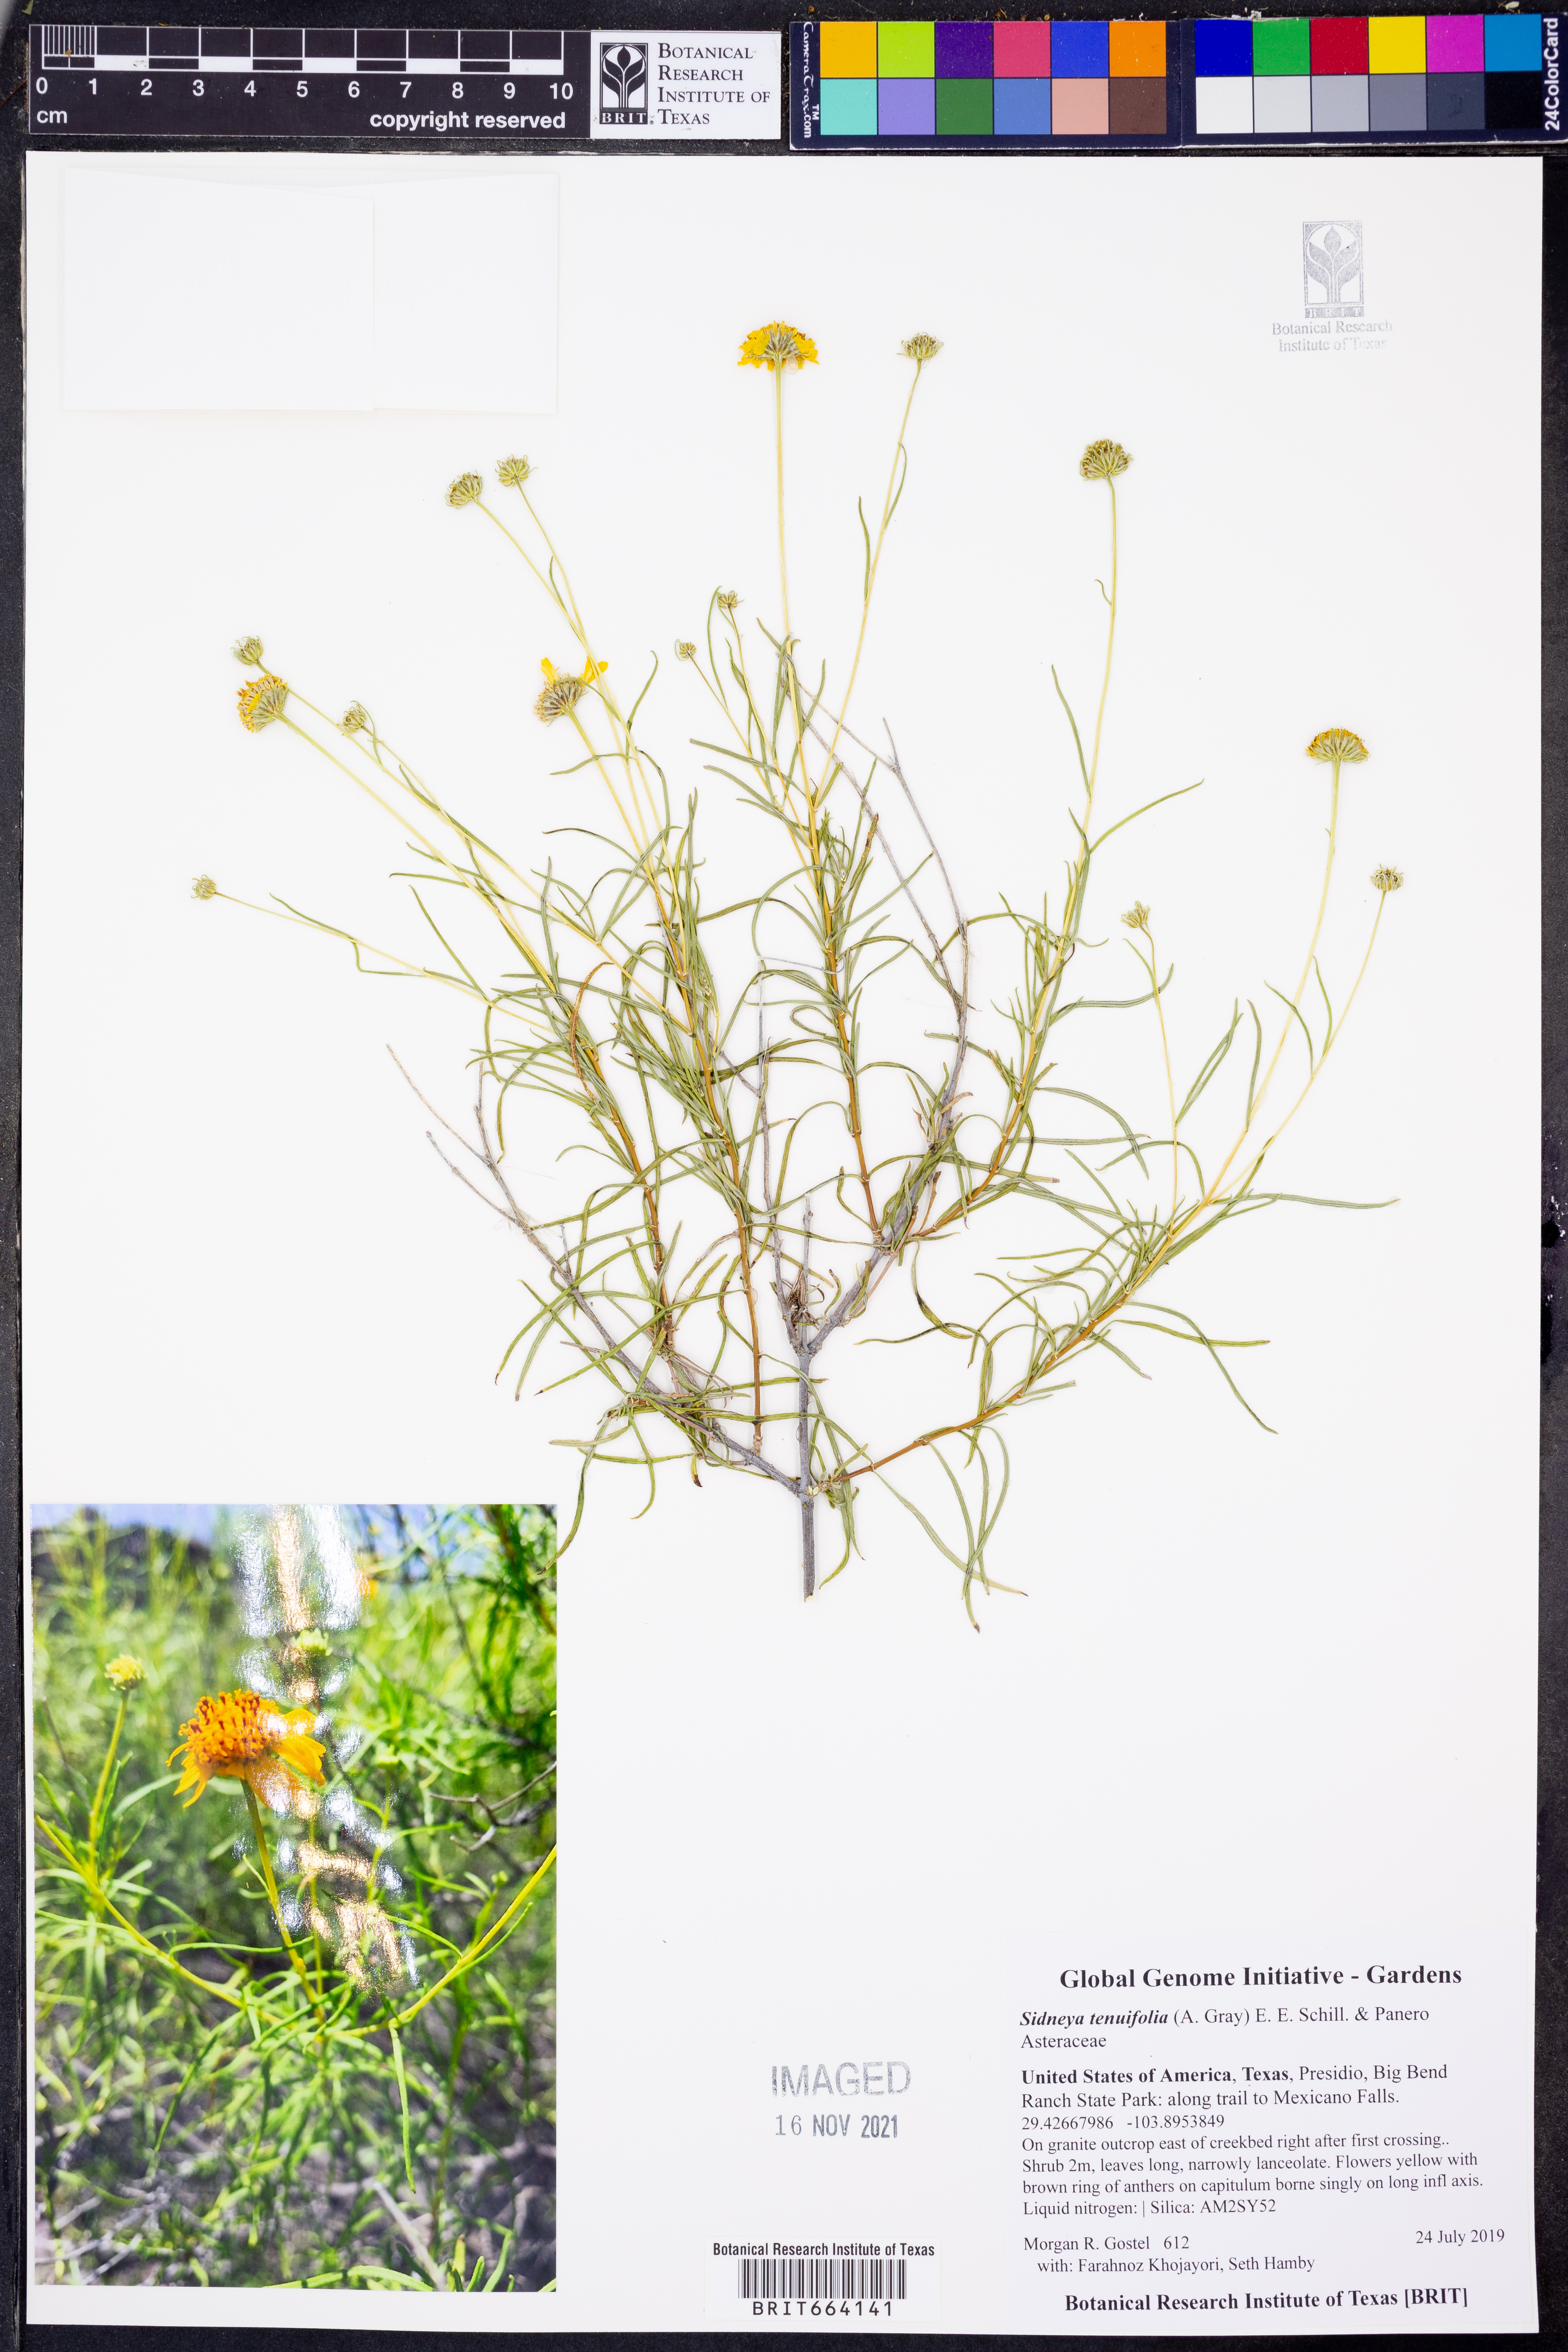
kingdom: Plantae
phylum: Tracheophyta
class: Magnoliopsida
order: Asterales
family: Asteraceae
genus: Sidneya
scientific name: Sidneya tenuifolia
